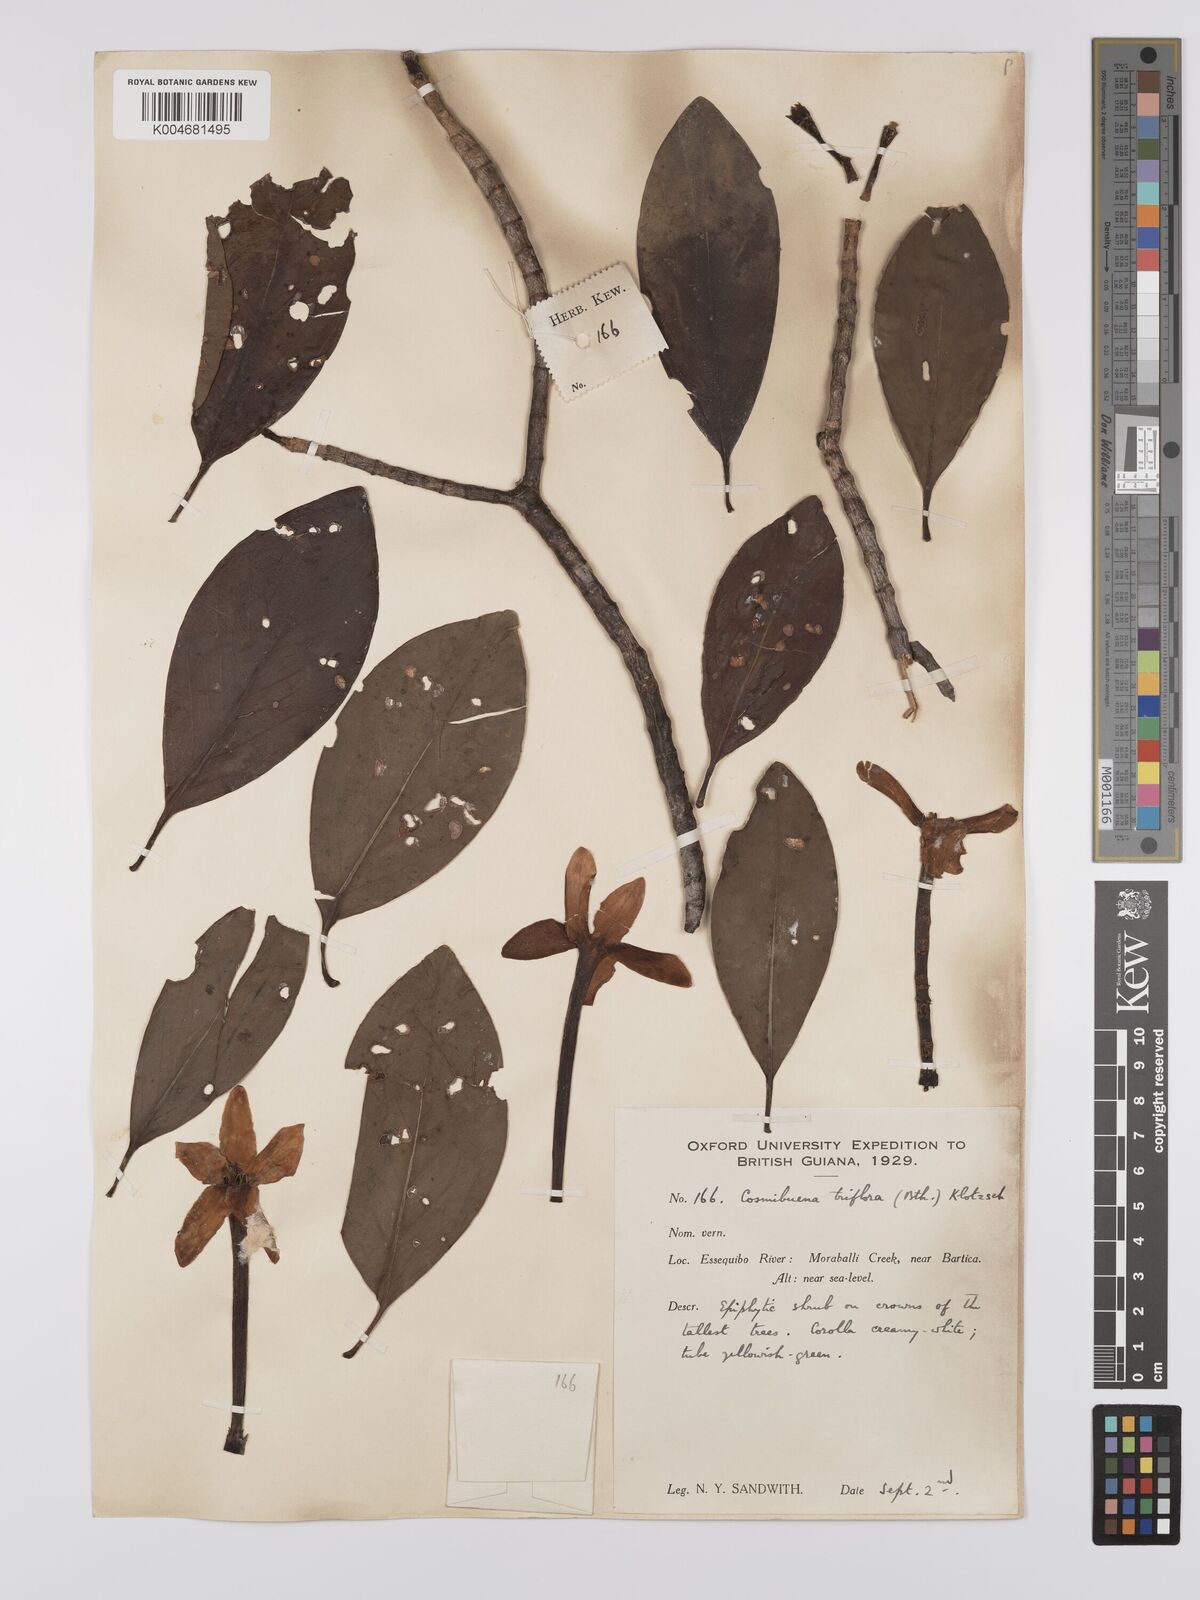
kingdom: Plantae
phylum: Tracheophyta
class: Magnoliopsida
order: Gentianales
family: Rubiaceae
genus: Cosmibuena
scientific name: Cosmibuena grandiflora
